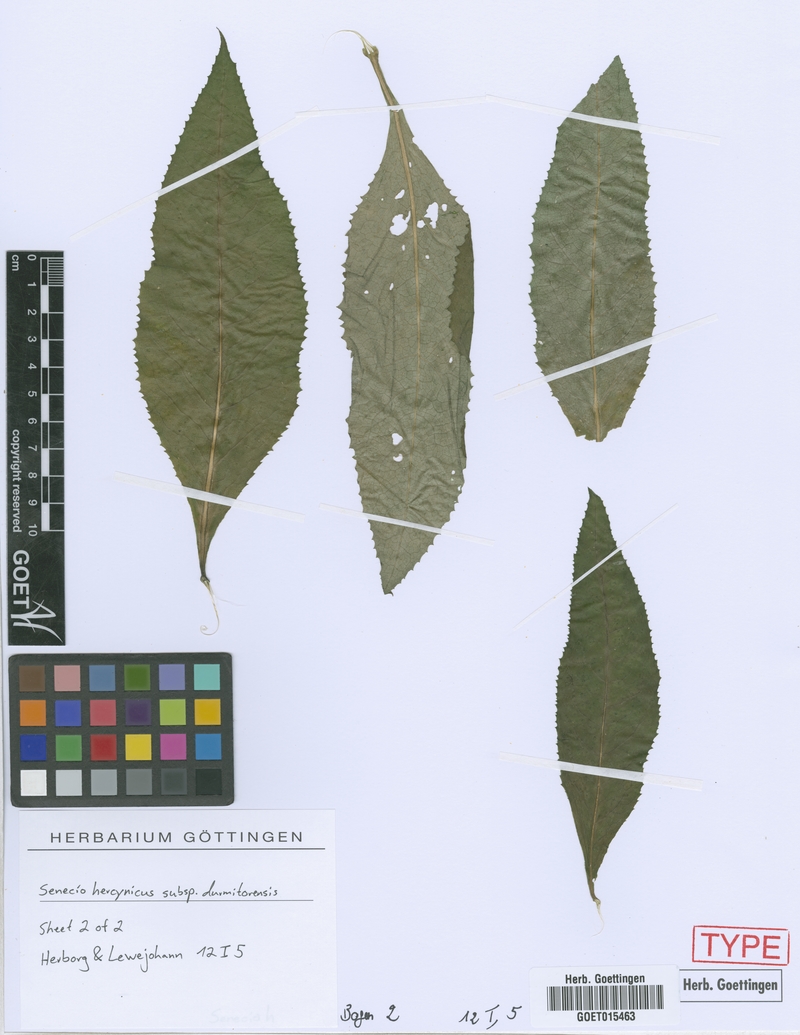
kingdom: Plantae
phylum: Tracheophyta
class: Magnoliopsida
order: Asterales
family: Asteraceae
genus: Senecio
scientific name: Senecio hercynicus
